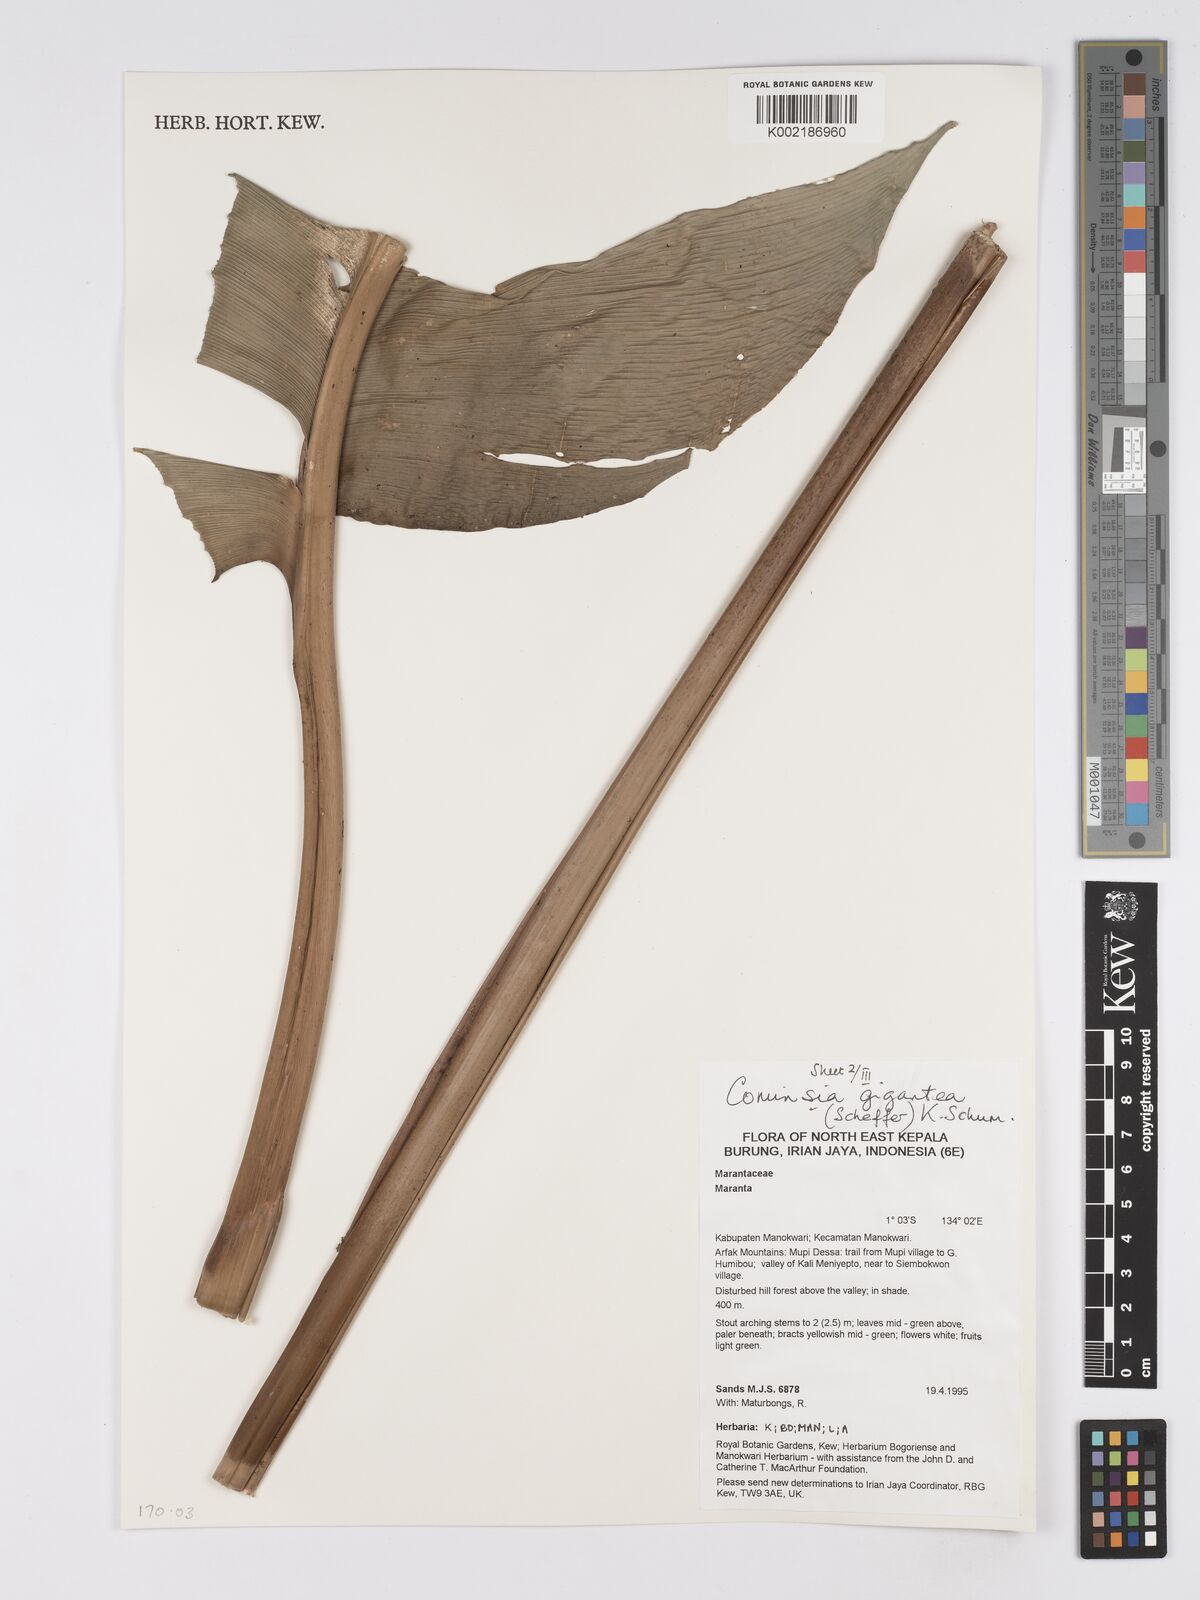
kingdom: Plantae
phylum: Tracheophyta
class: Liliopsida
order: Zingiberales
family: Marantaceae
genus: Phrynium
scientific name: Phrynium giganteum
